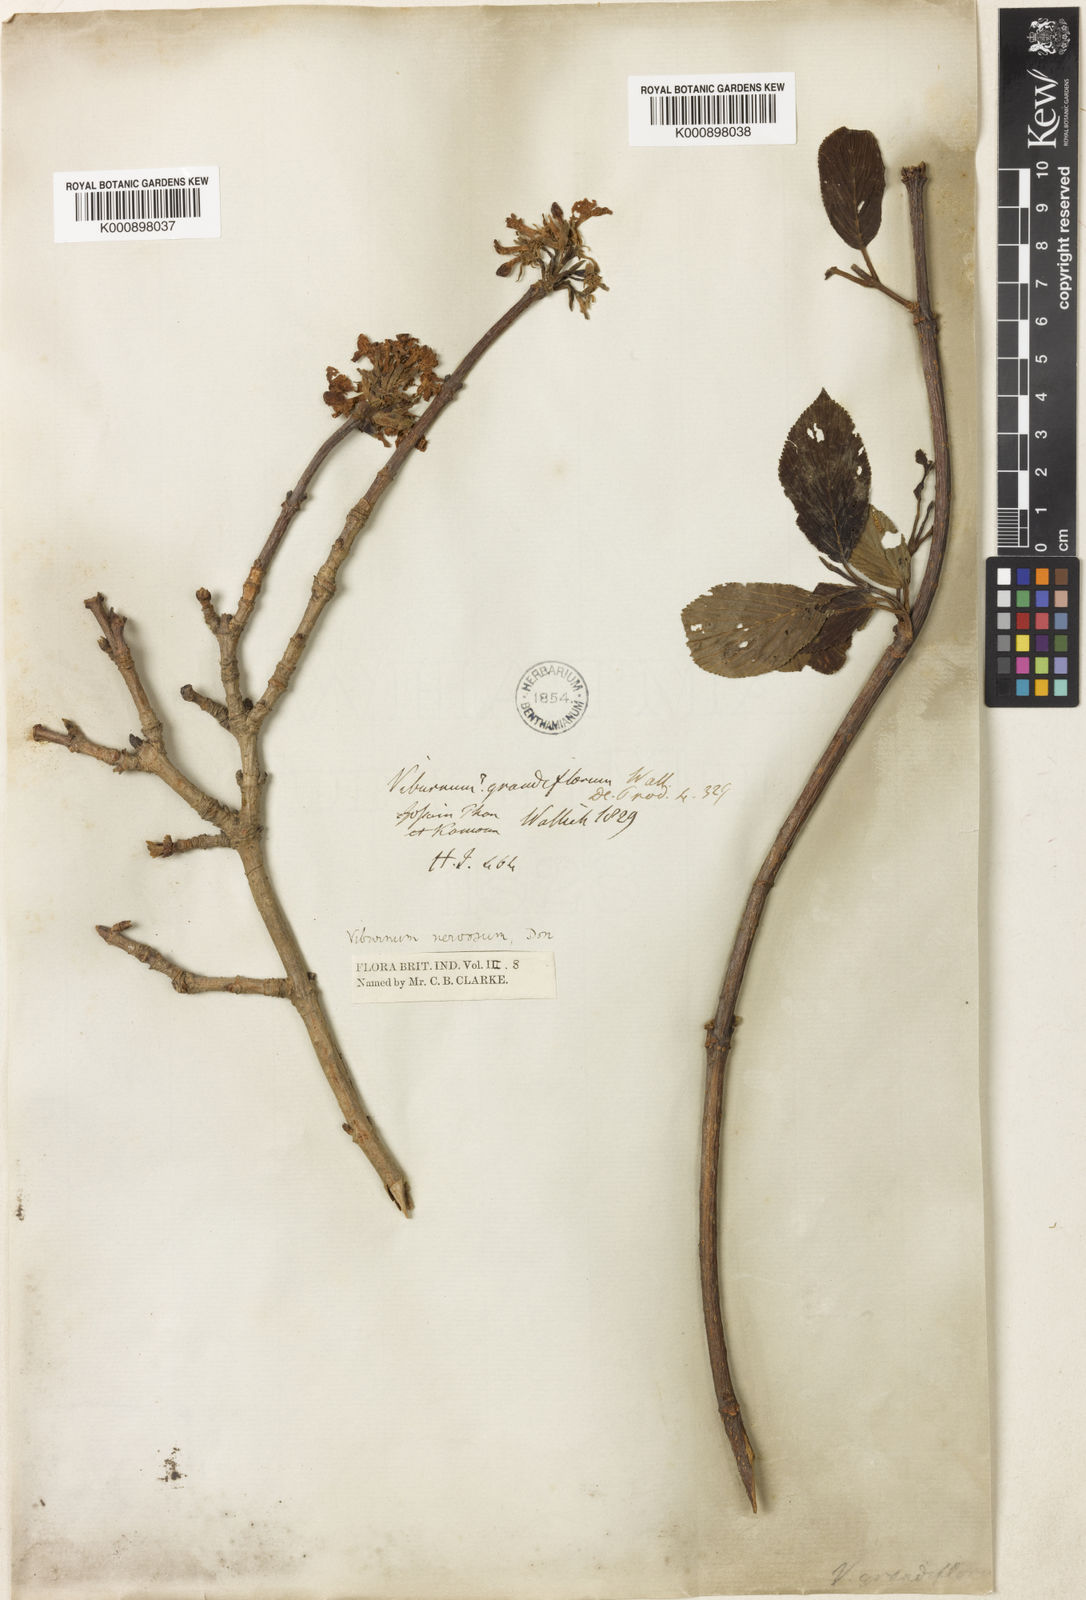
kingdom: Plantae
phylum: Tracheophyta
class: Magnoliopsida
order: Dipsacales
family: Viburnaceae
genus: Viburnum
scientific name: Viburnum grandiflorum
